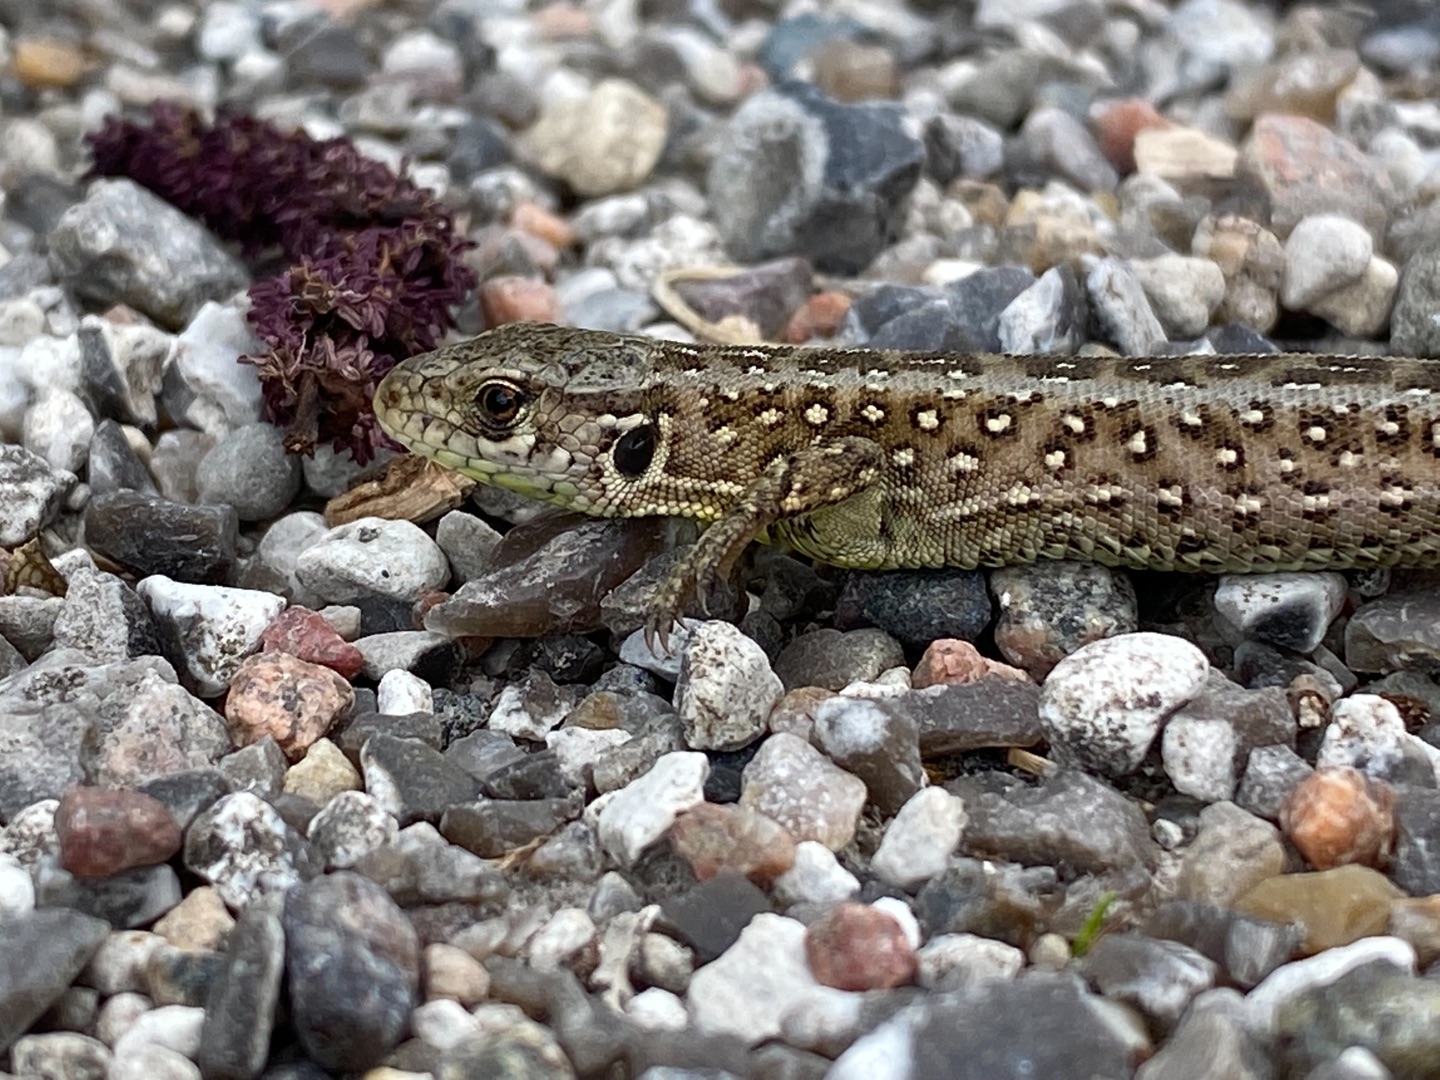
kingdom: Animalia
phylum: Chordata
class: Squamata
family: Lacertidae
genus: Lacerta
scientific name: Lacerta agilis
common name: Markfirben
